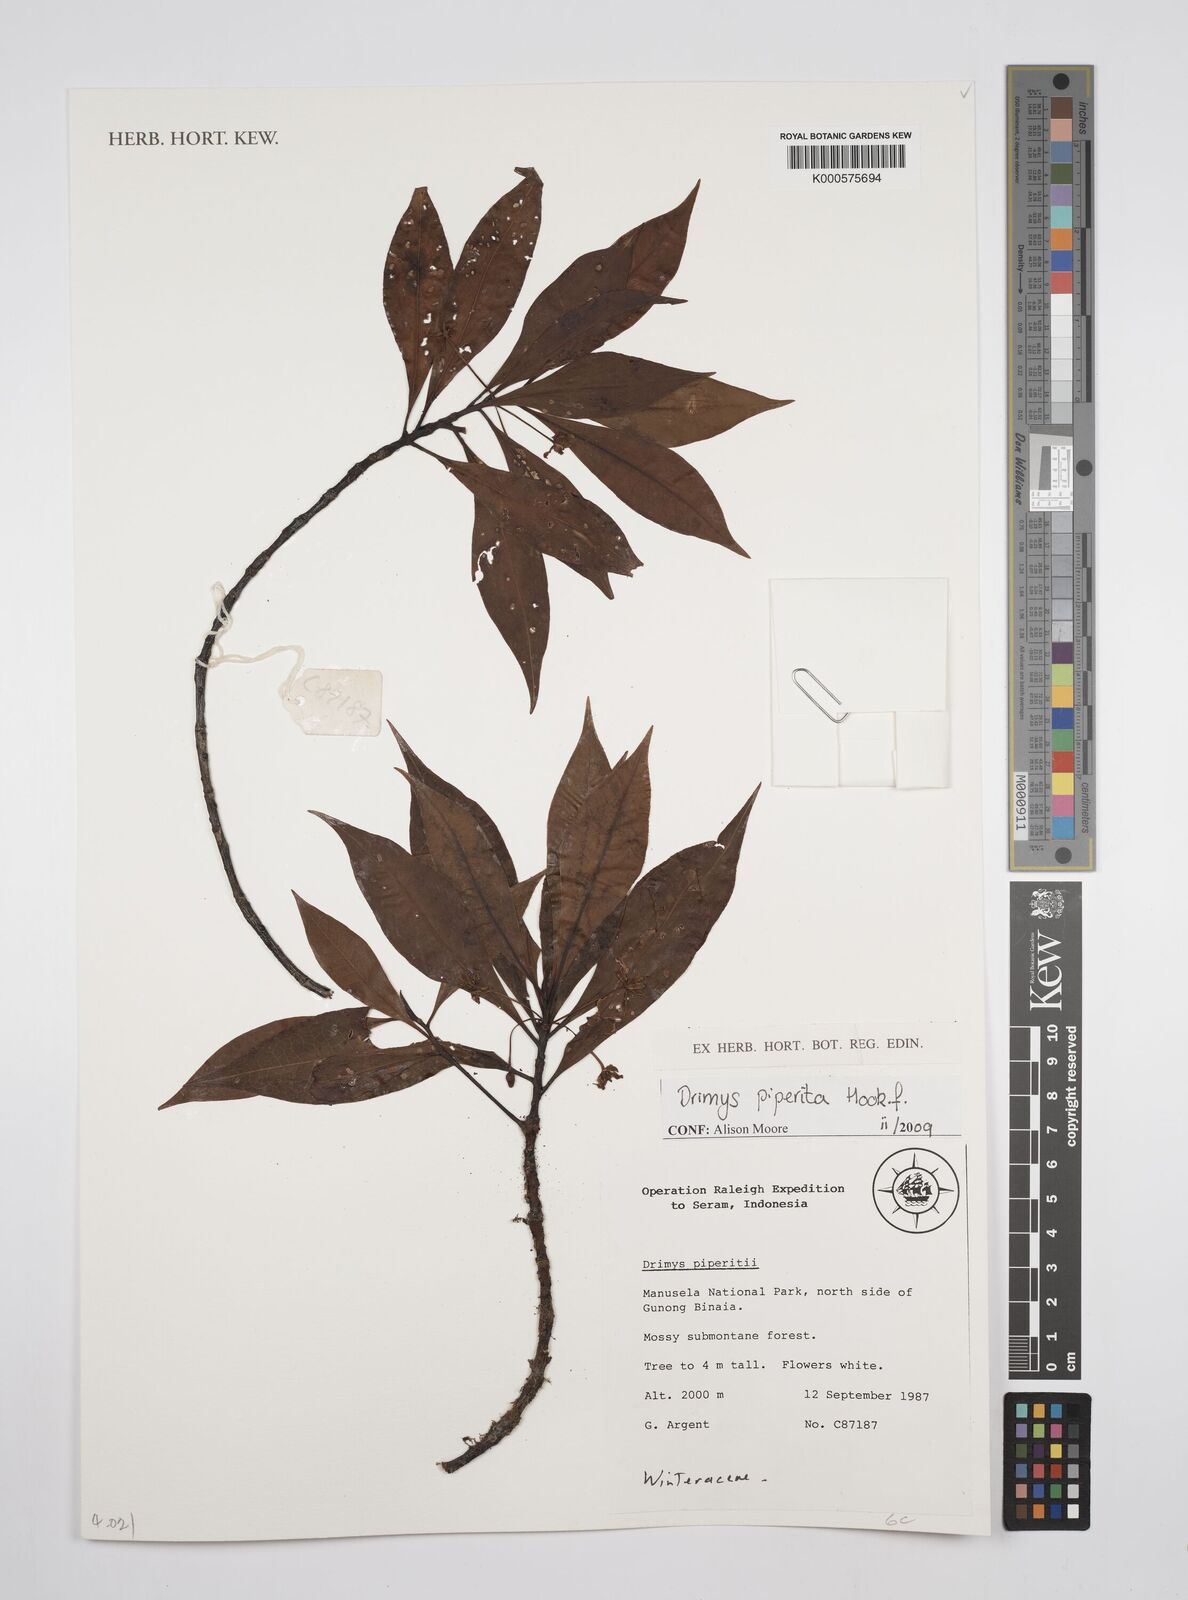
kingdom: Plantae
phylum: Tracheophyta
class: Magnoliopsida
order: Canellales
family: Winteraceae
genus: Drimys
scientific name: Drimys piperita
